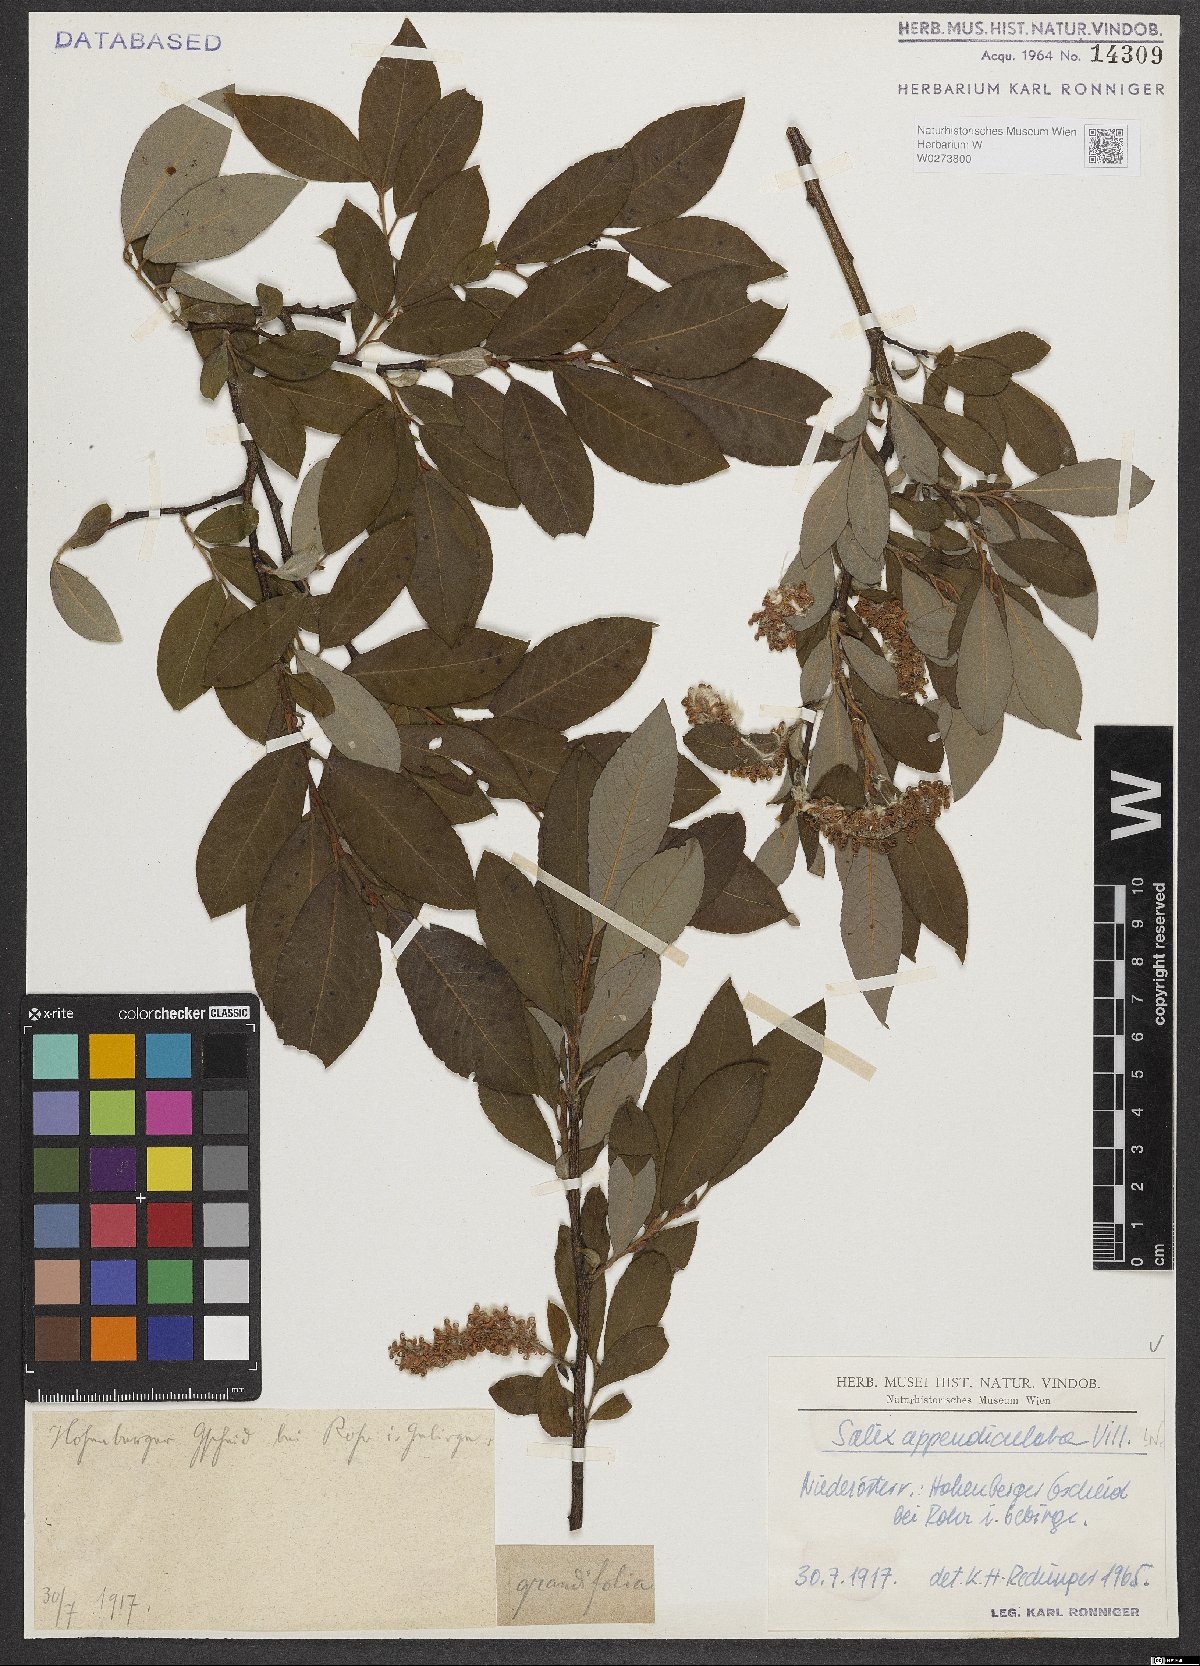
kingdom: Plantae
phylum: Tracheophyta
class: Magnoliopsida
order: Malpighiales
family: Salicaceae
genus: Salix
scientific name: Salix appendiculata
